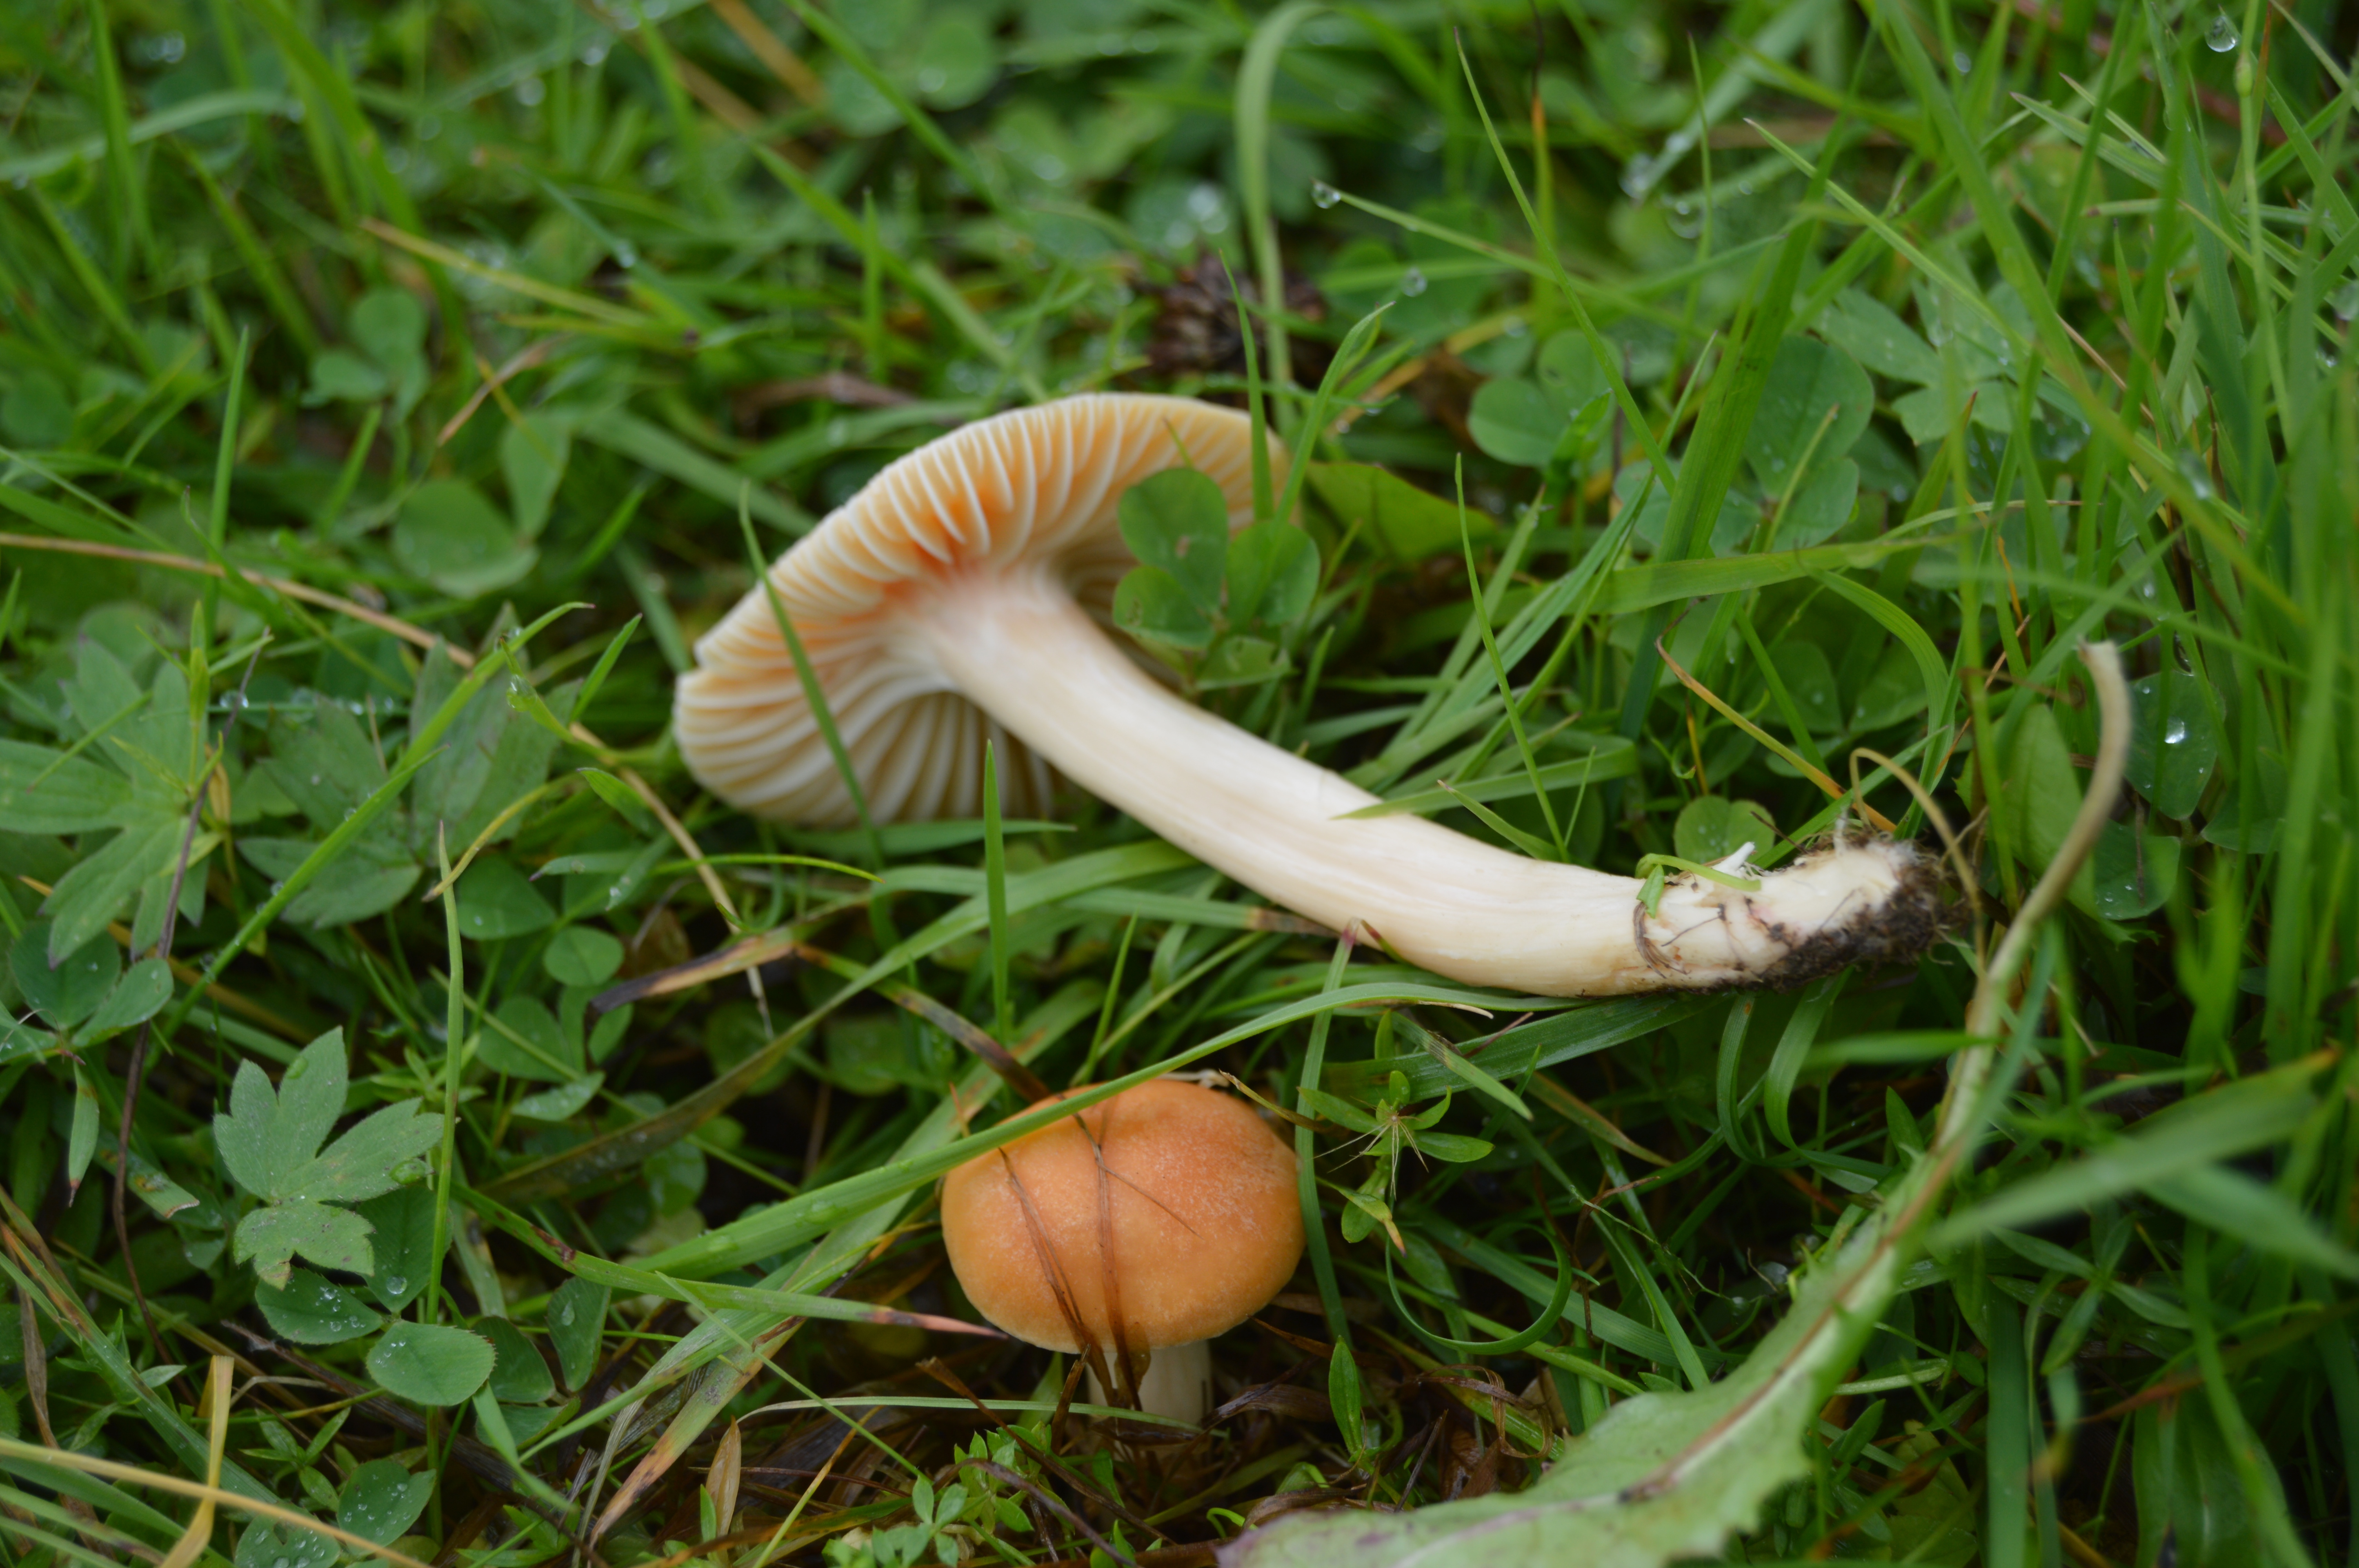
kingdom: Fungi
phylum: Basidiomycota
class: Agaricomycetes
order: Agaricales
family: Hygrophoraceae
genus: Cuphophyllus
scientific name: Cuphophyllus pratensis
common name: Meadow waxcap
